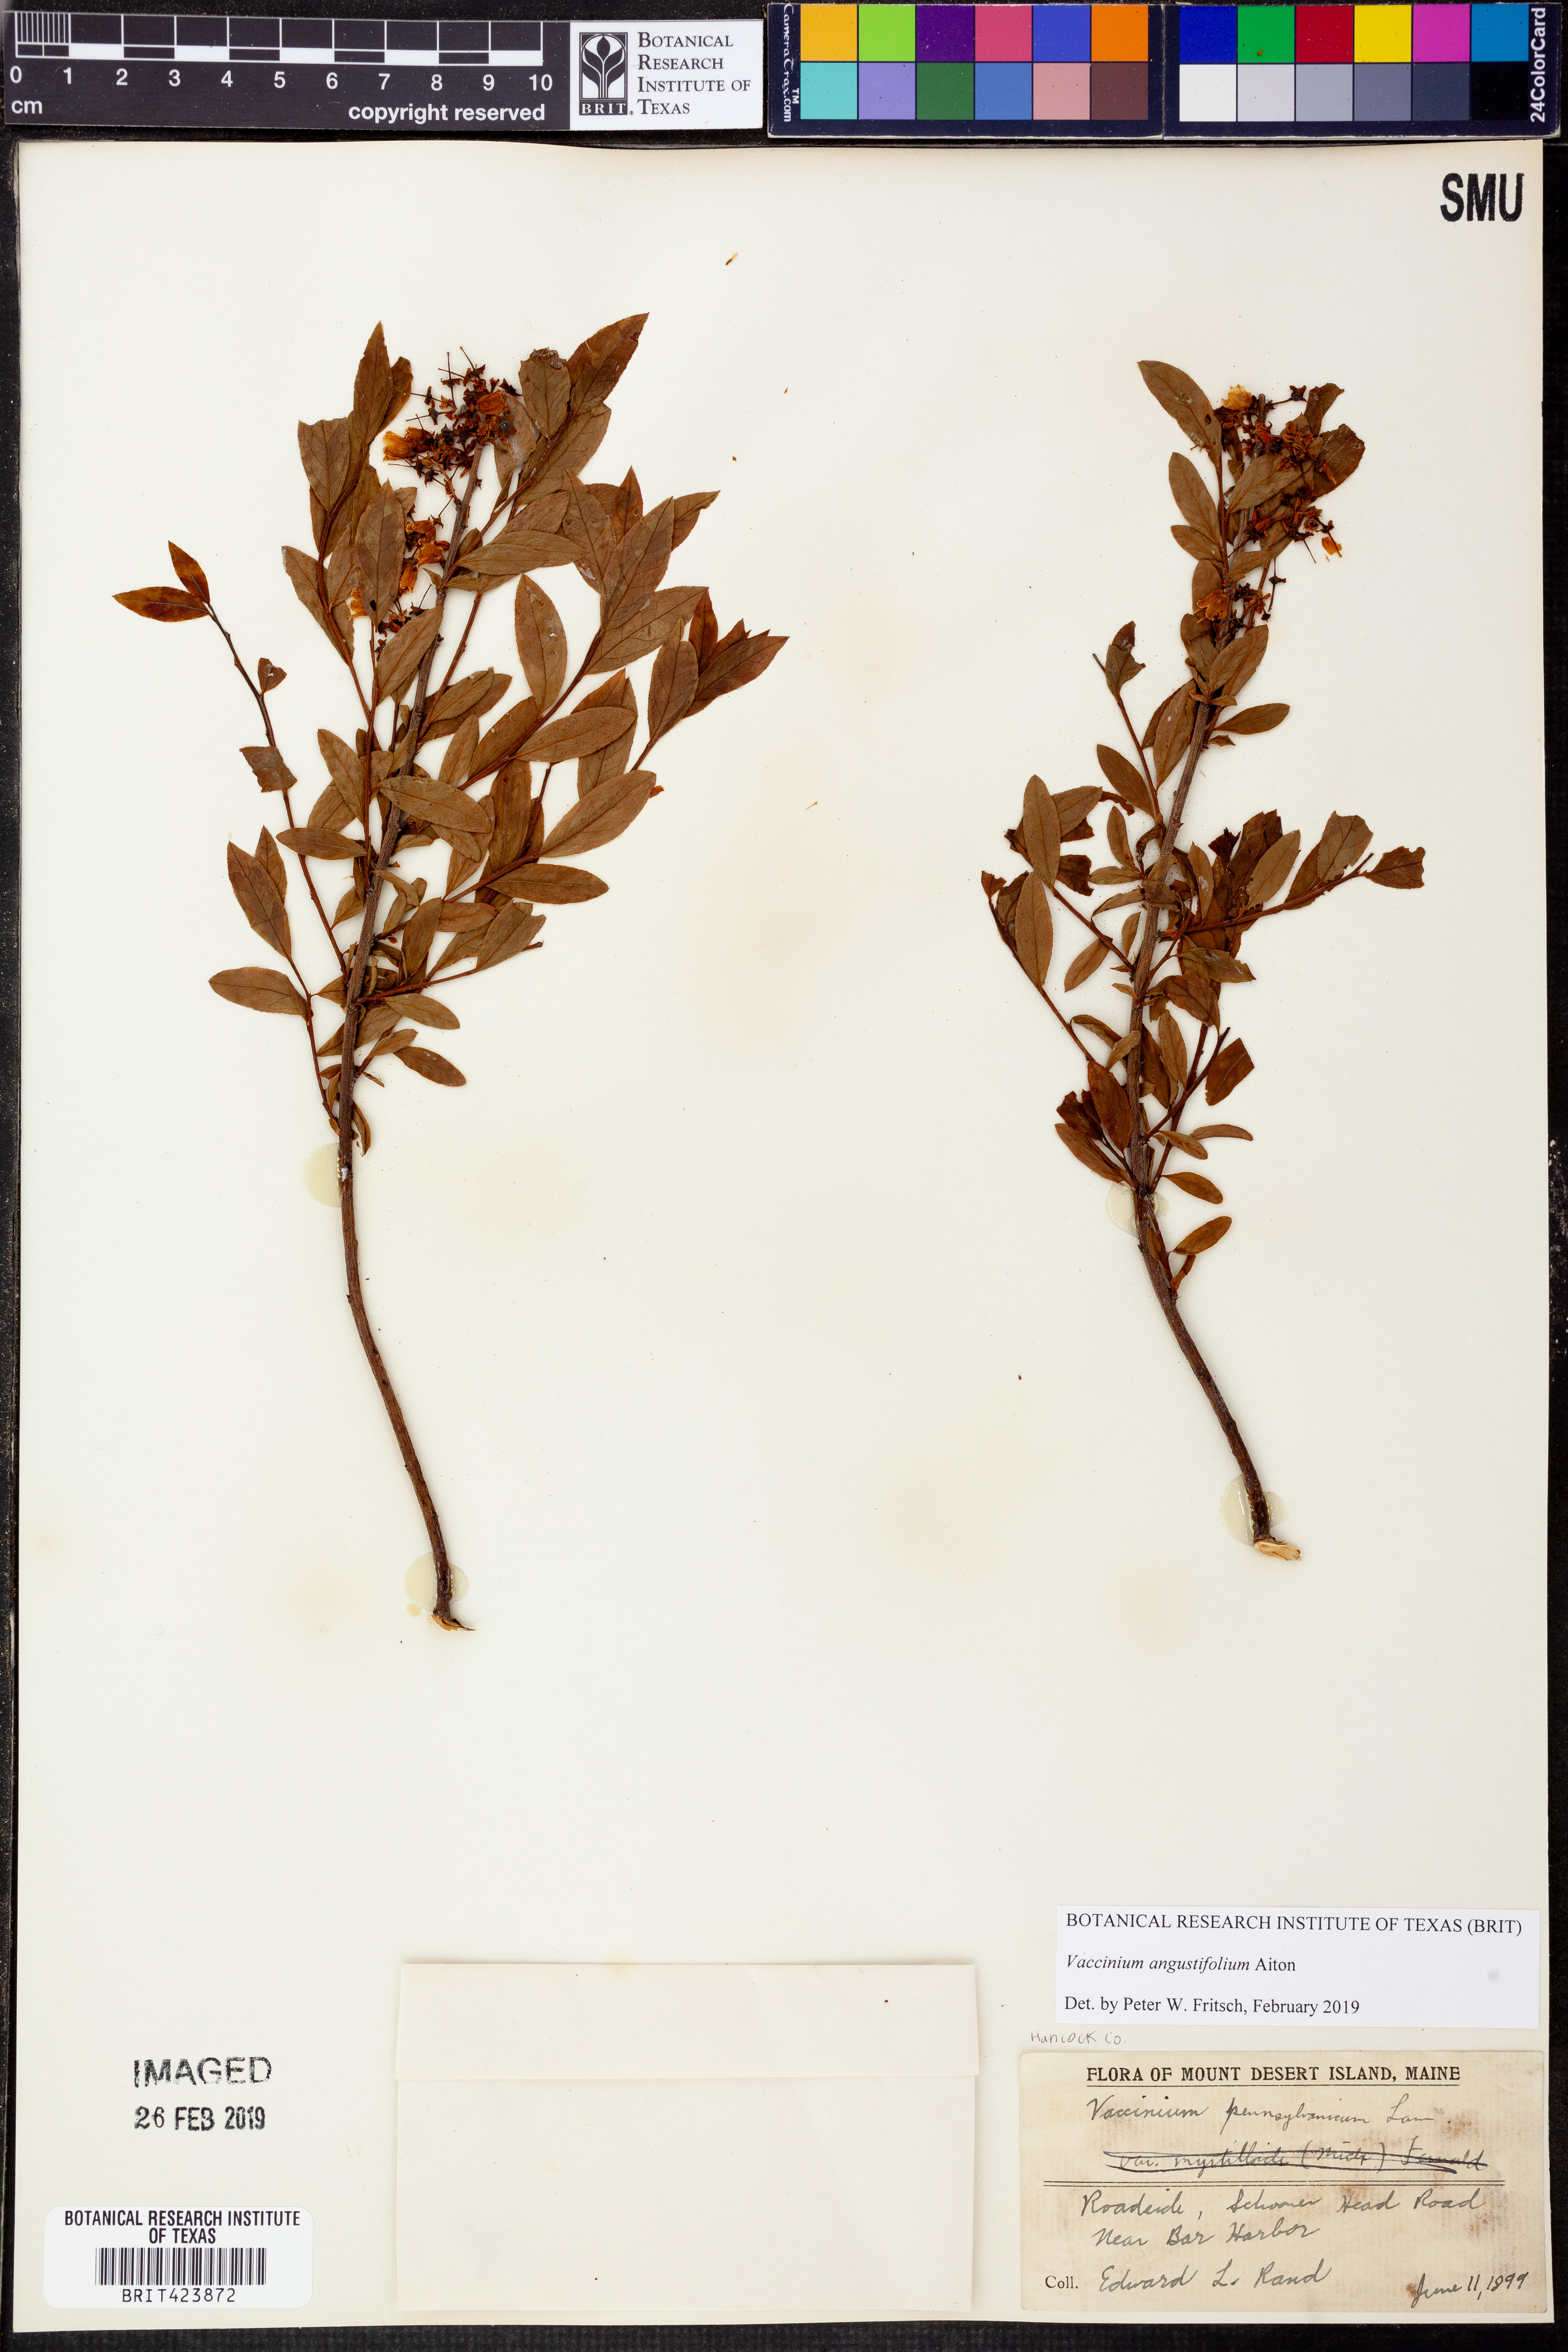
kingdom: Plantae
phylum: Tracheophyta
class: Magnoliopsida
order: Ericales
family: Ericaceae
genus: Vaccinium
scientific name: Vaccinium angustifolium
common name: Early lowbush blueberry
